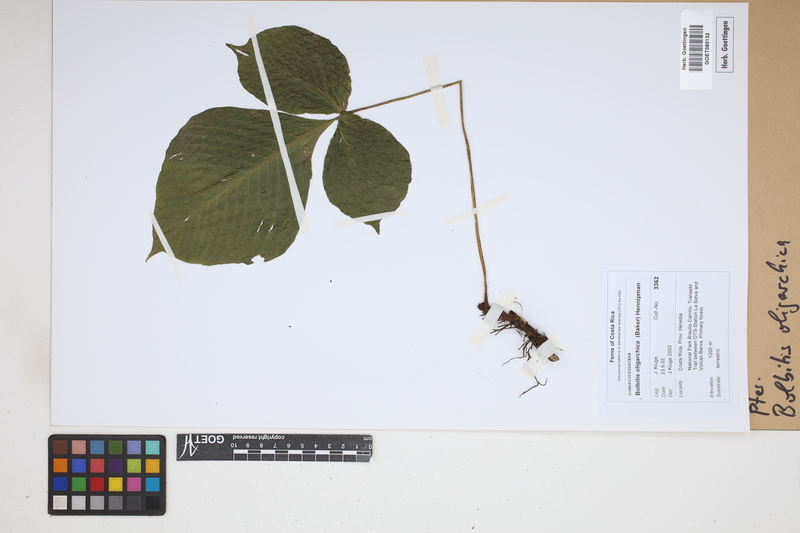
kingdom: Plantae
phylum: Tracheophyta
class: Polypodiopsida
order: Polypodiales
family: Dryopteridaceae
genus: Mickelia
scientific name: Mickelia oligarchica
